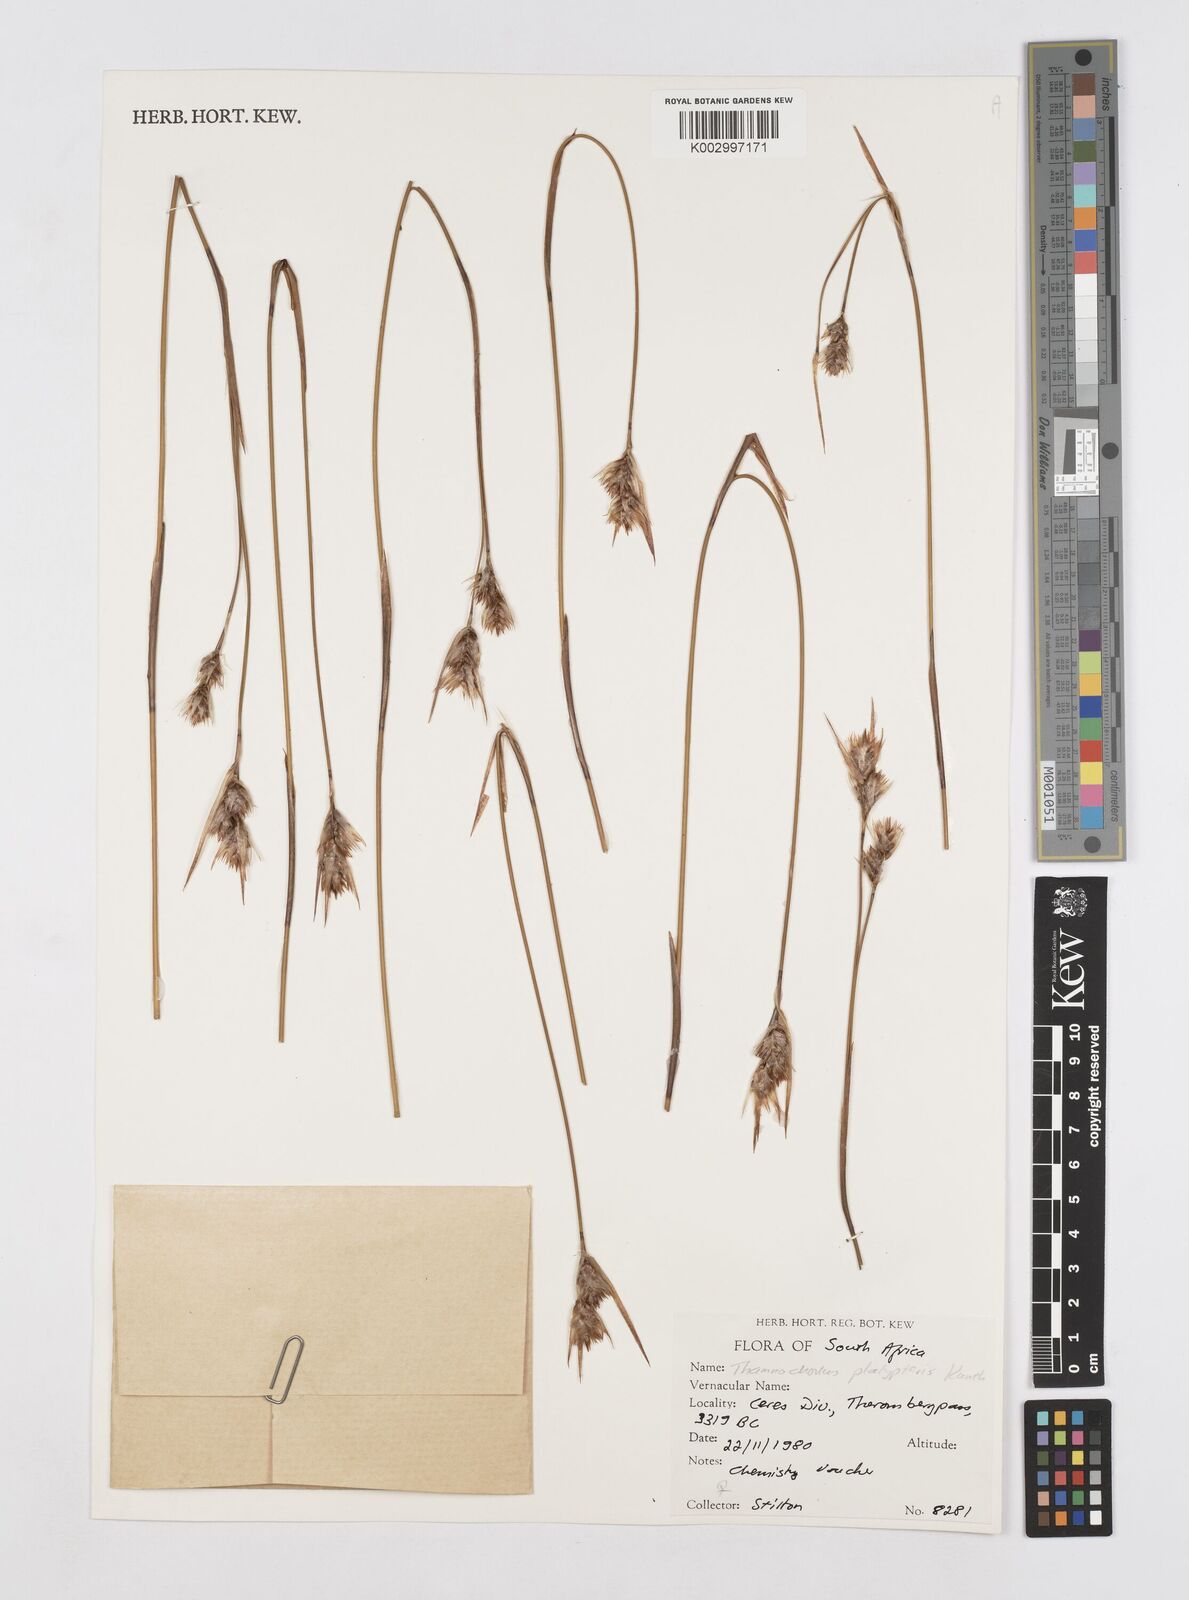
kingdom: Plantae
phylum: Tracheophyta
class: Liliopsida
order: Poales
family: Restionaceae
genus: Thamnochortus
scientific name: Thamnochortus platypteris
